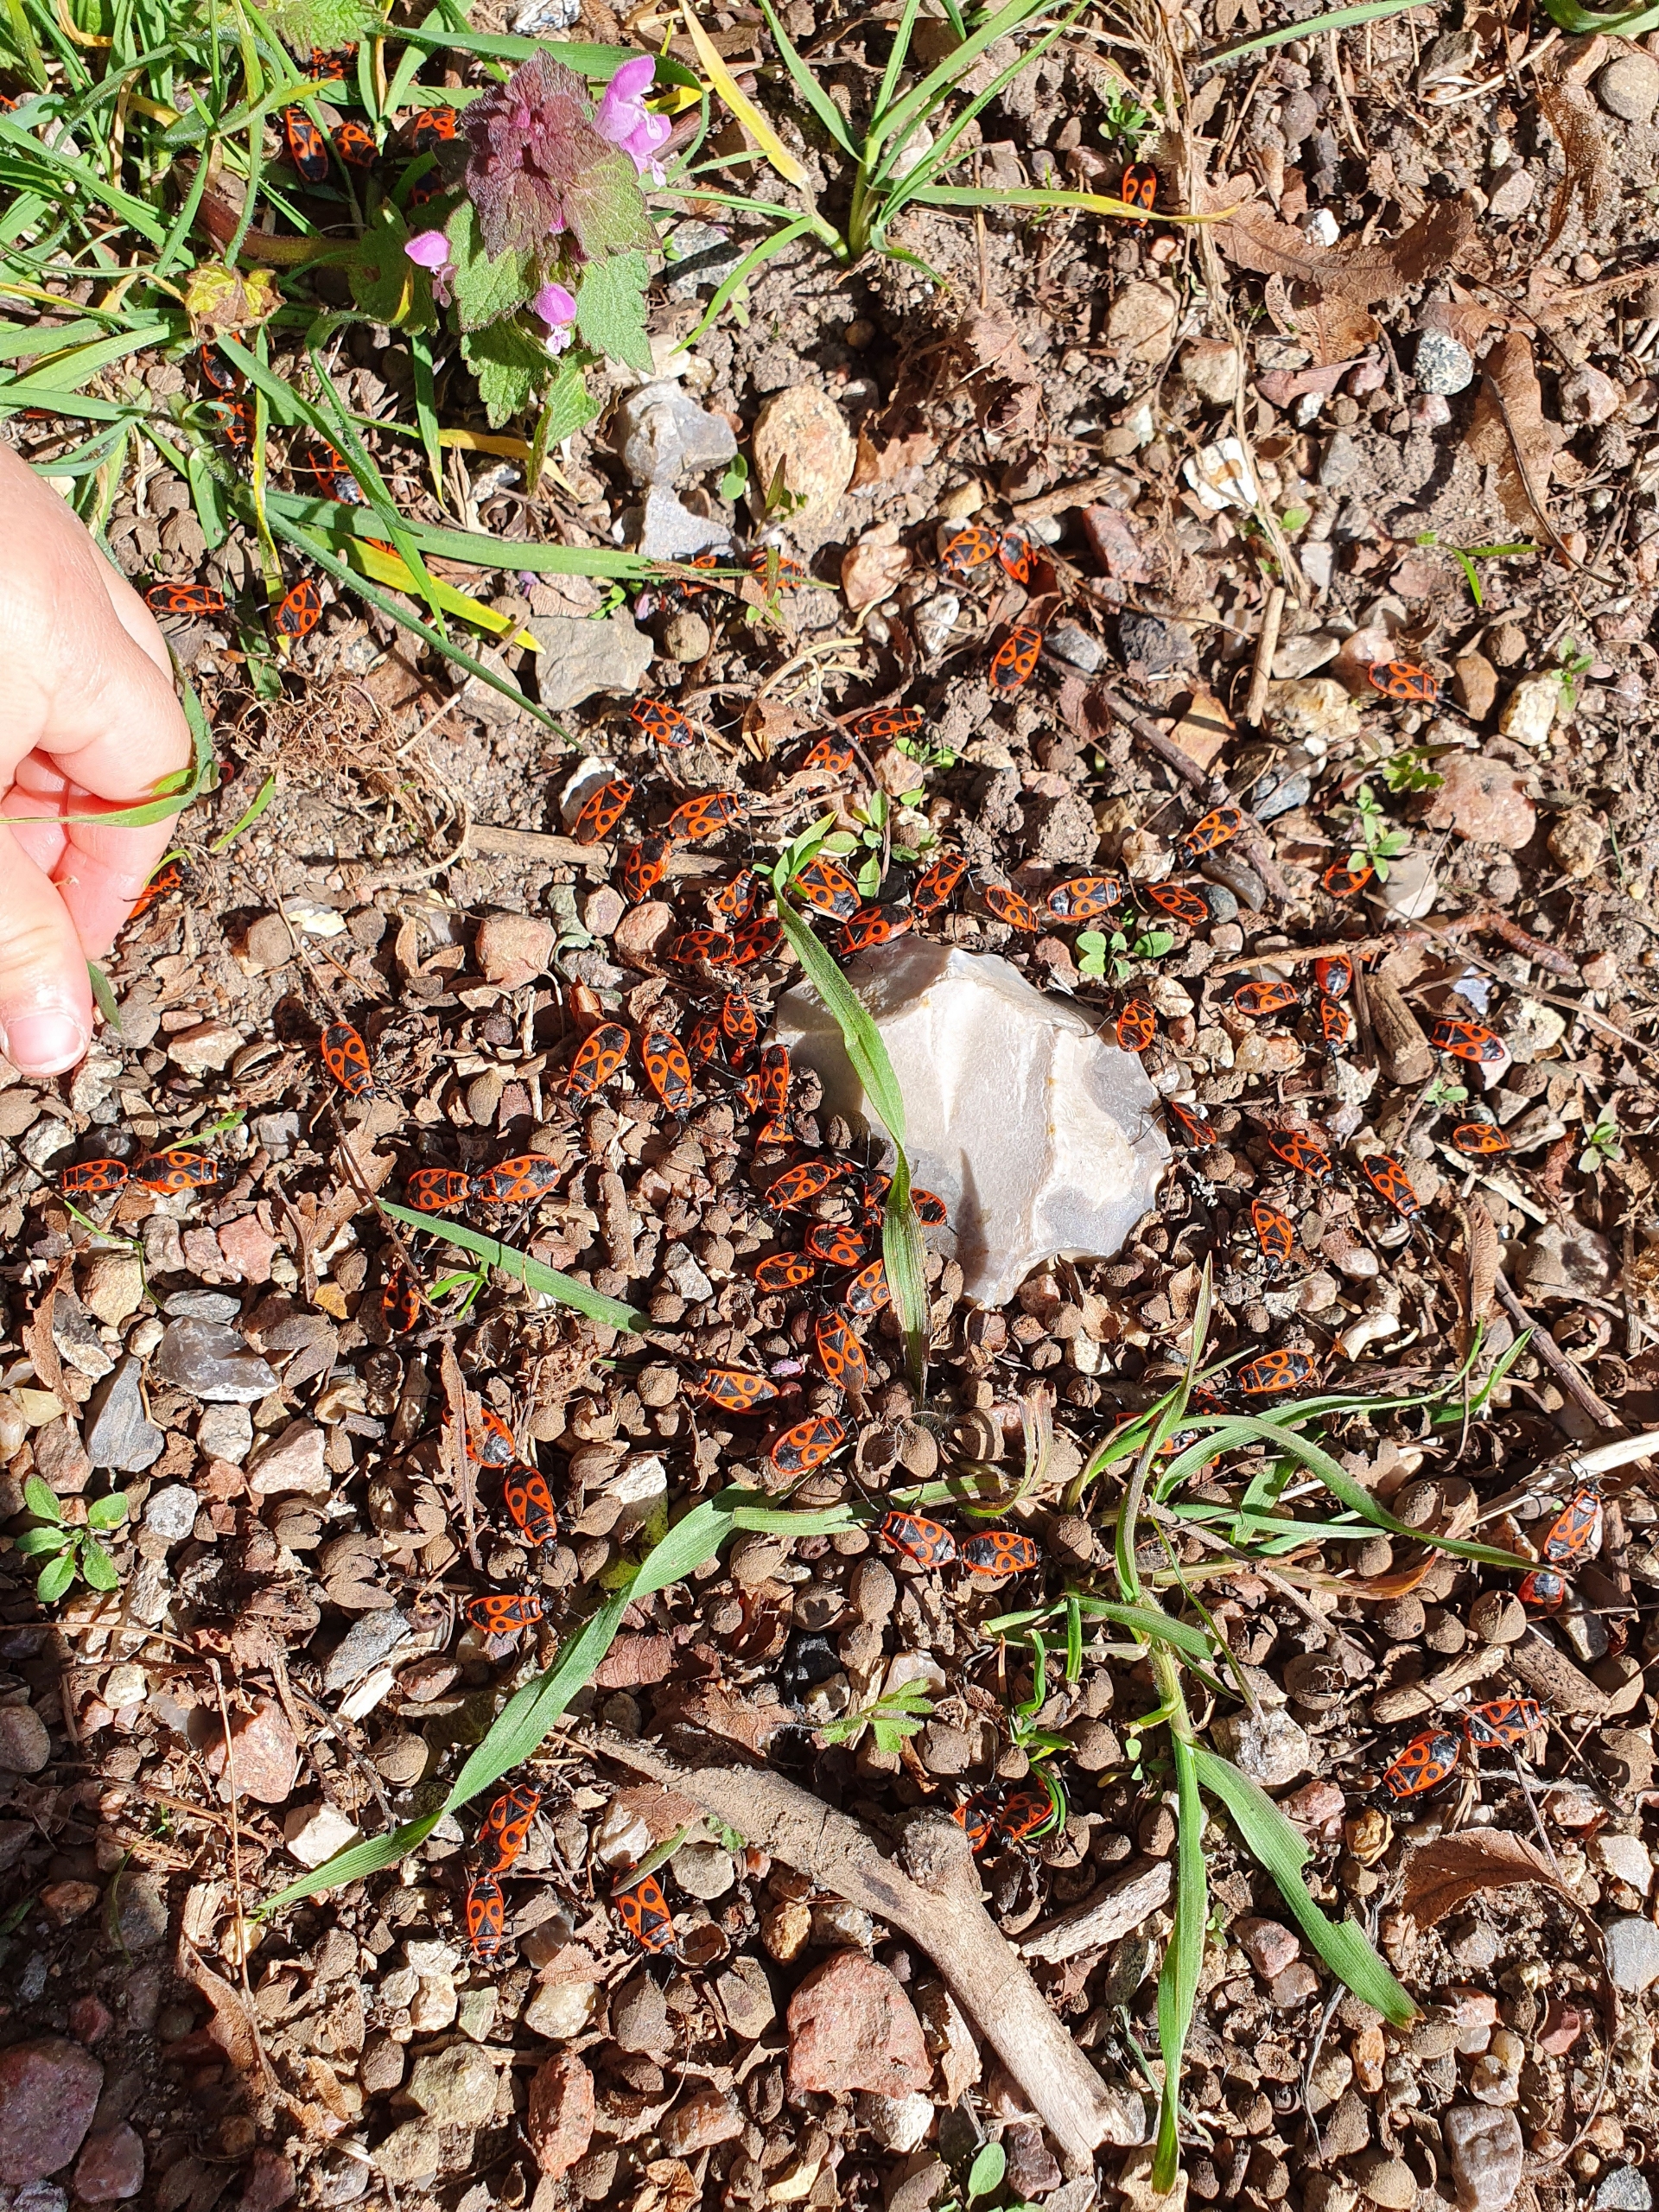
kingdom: Animalia
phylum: Arthropoda
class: Insecta
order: Hemiptera
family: Pyrrhocoridae
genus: Pyrrhocoris
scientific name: Pyrrhocoris apterus
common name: Ildtæge
